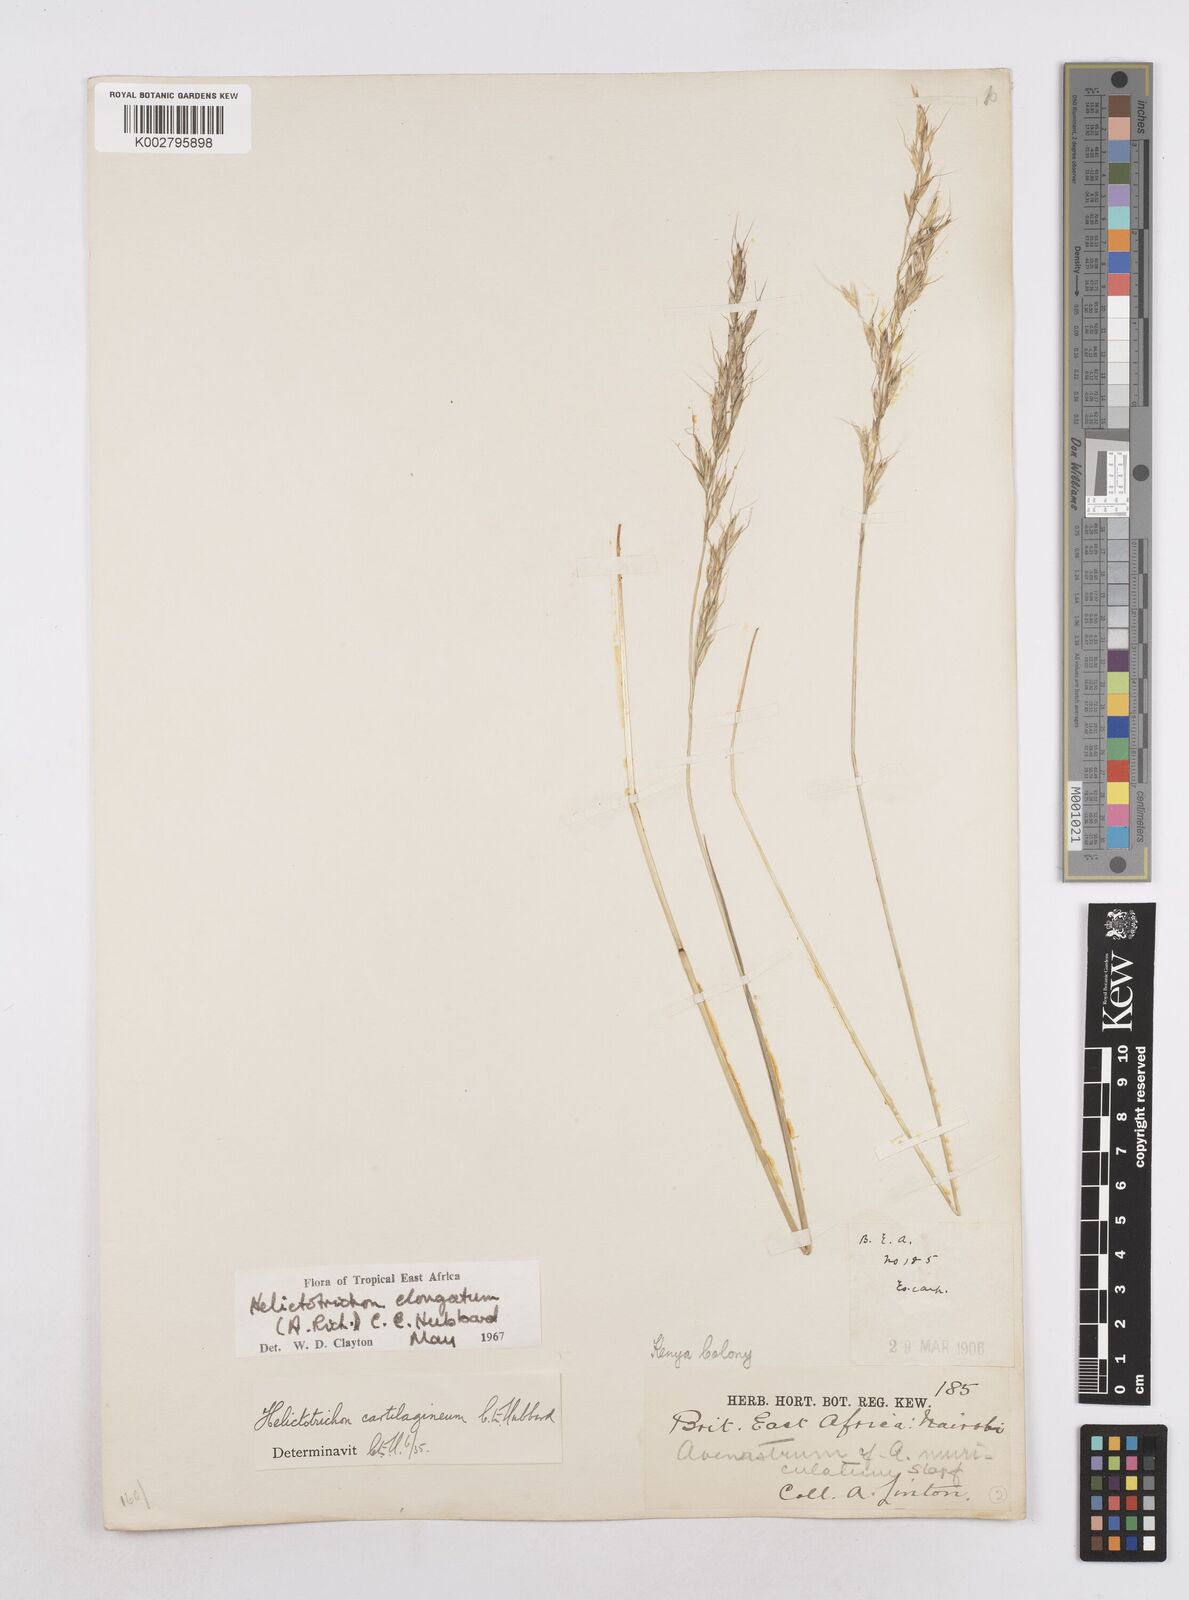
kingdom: Plantae
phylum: Tracheophyta
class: Liliopsida
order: Poales
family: Poaceae
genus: Trisetopsis
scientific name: Trisetopsis elongata
